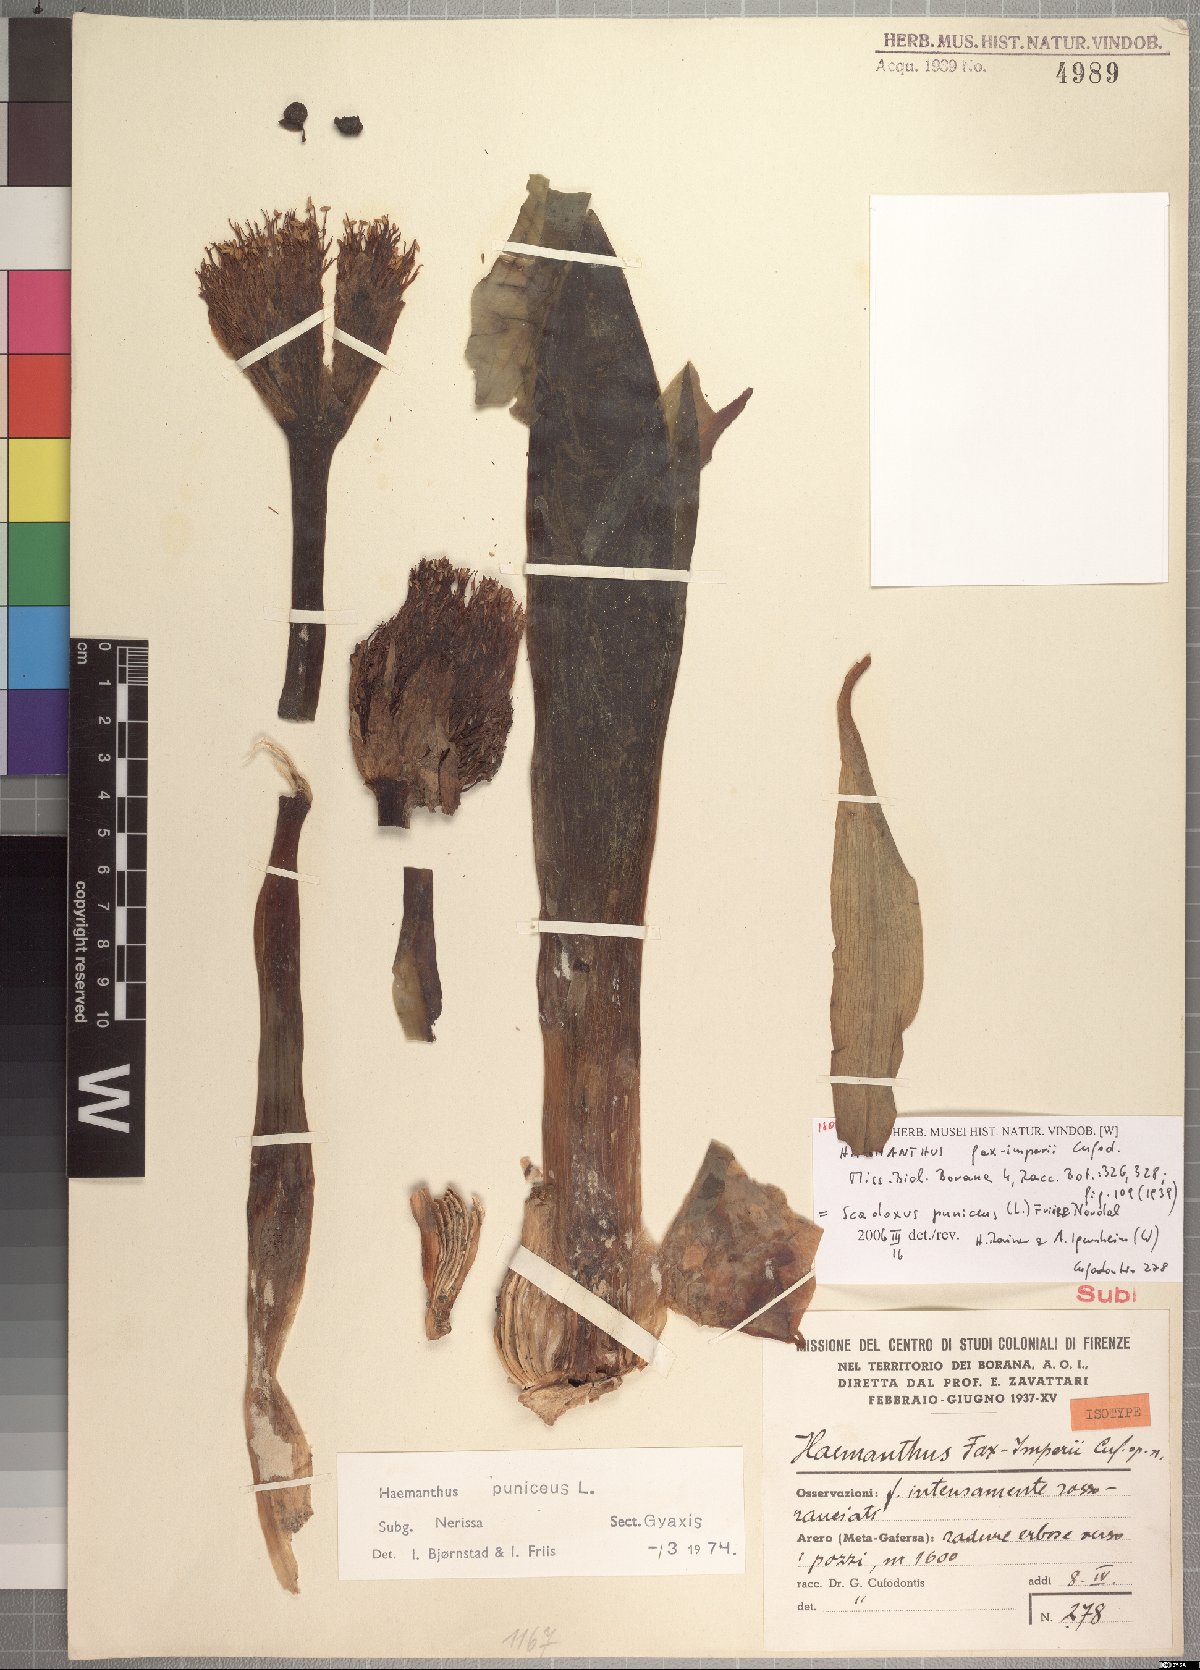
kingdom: Plantae
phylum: Tracheophyta
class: Liliopsida
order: Asparagales
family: Amaryllidaceae
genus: Scadoxus
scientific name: Scadoxus puniceus
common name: Royal-paintbrush
